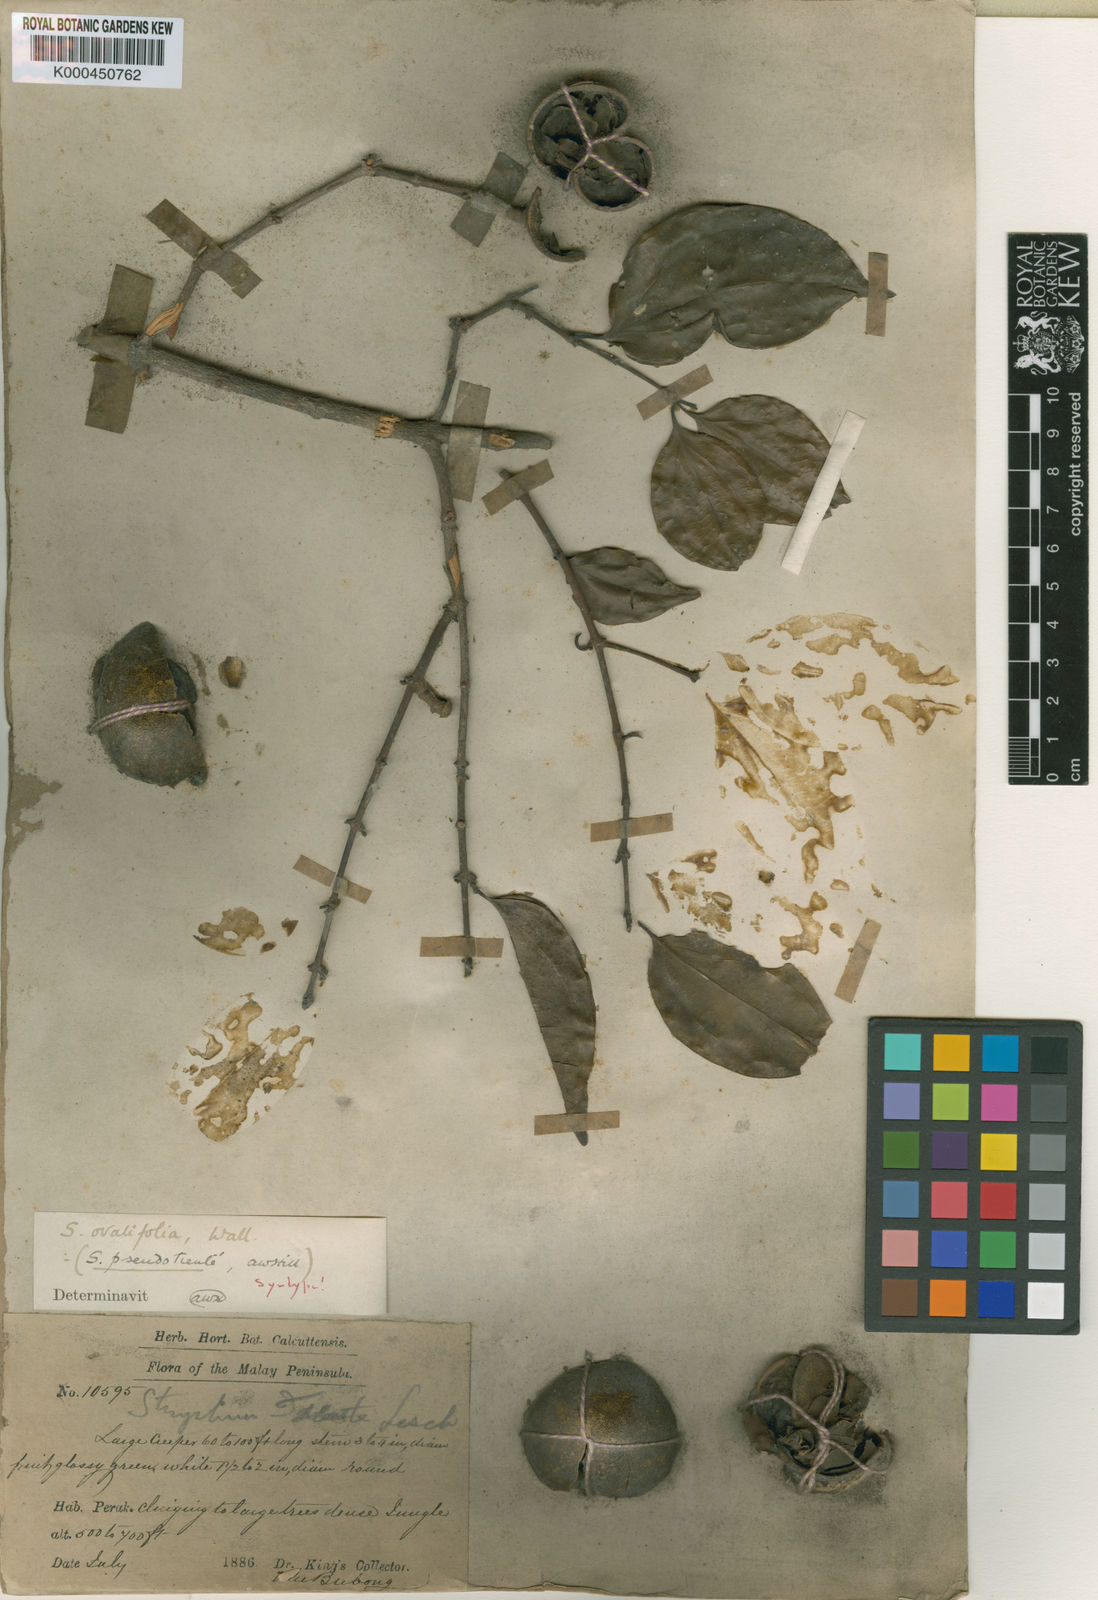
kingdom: Plantae
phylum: Tracheophyta
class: Magnoliopsida
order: Gentianales
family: Loganiaceae
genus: Strychnos
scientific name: Strychnos
